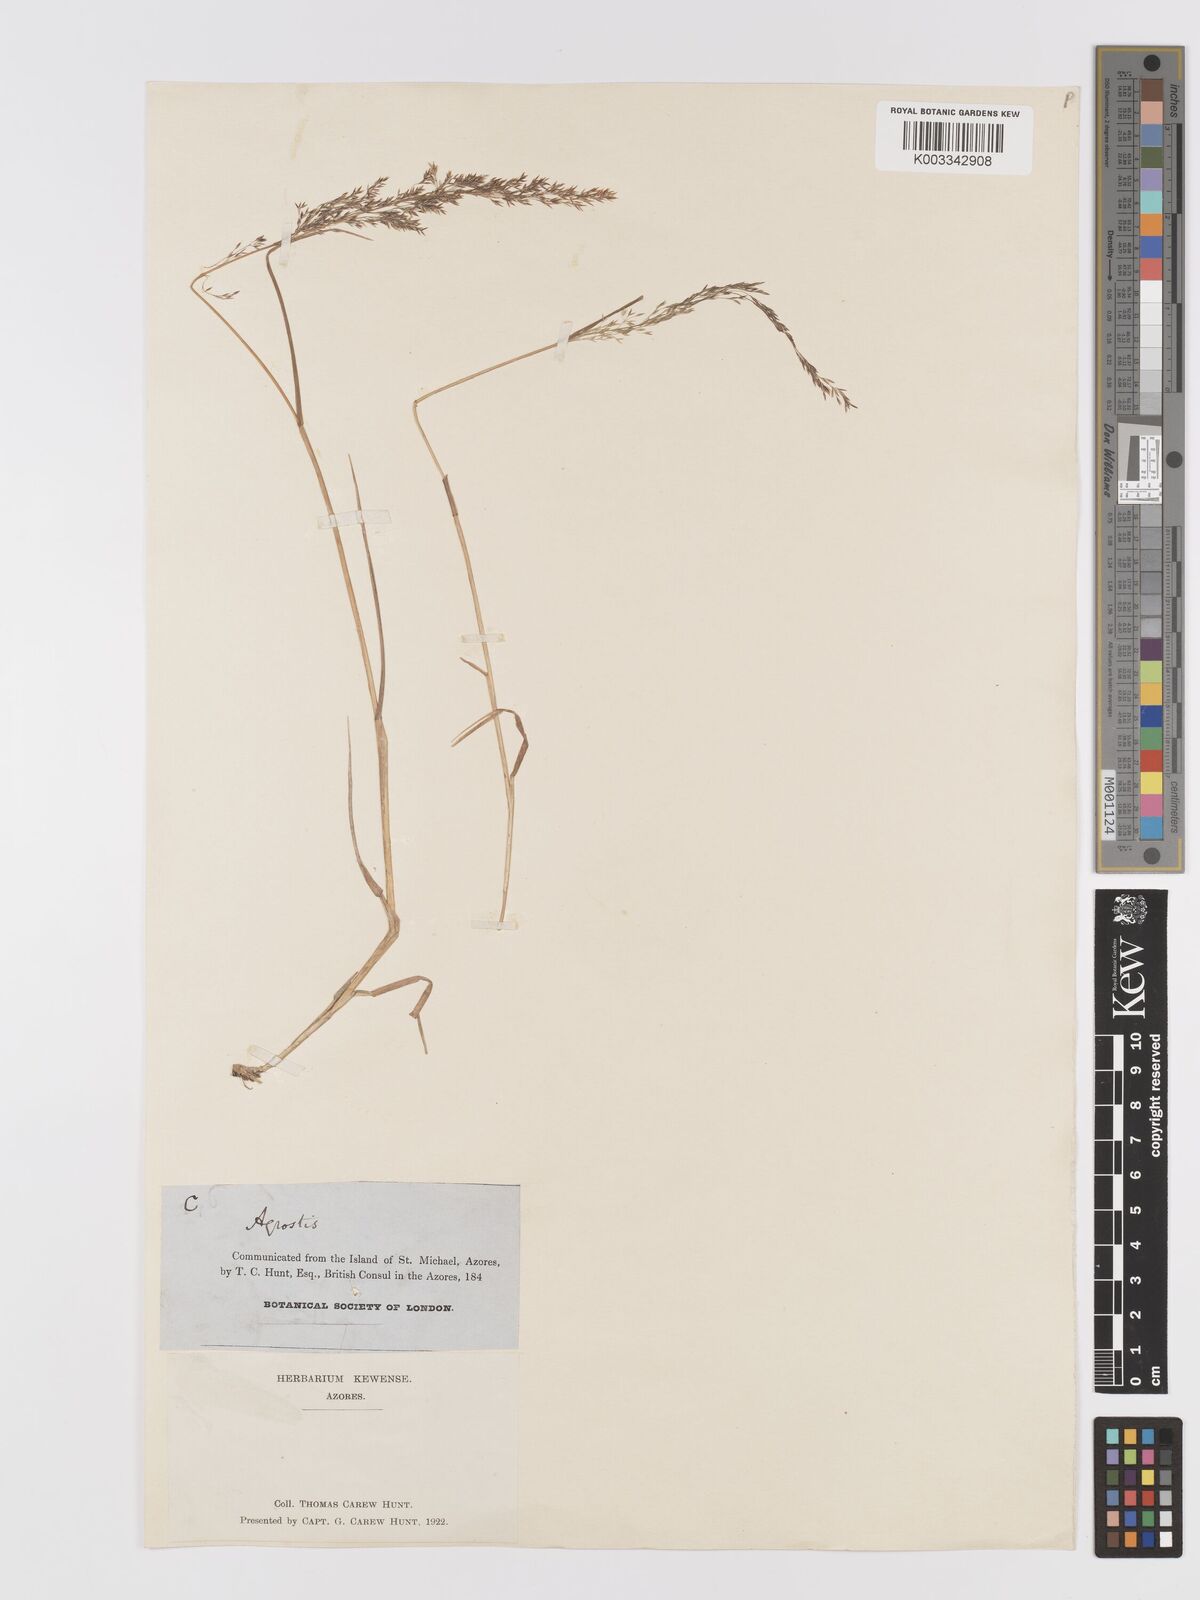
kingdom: Plantae
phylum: Tracheophyta
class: Liliopsida
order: Poales
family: Poaceae
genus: Agrostis
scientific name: Agrostis
